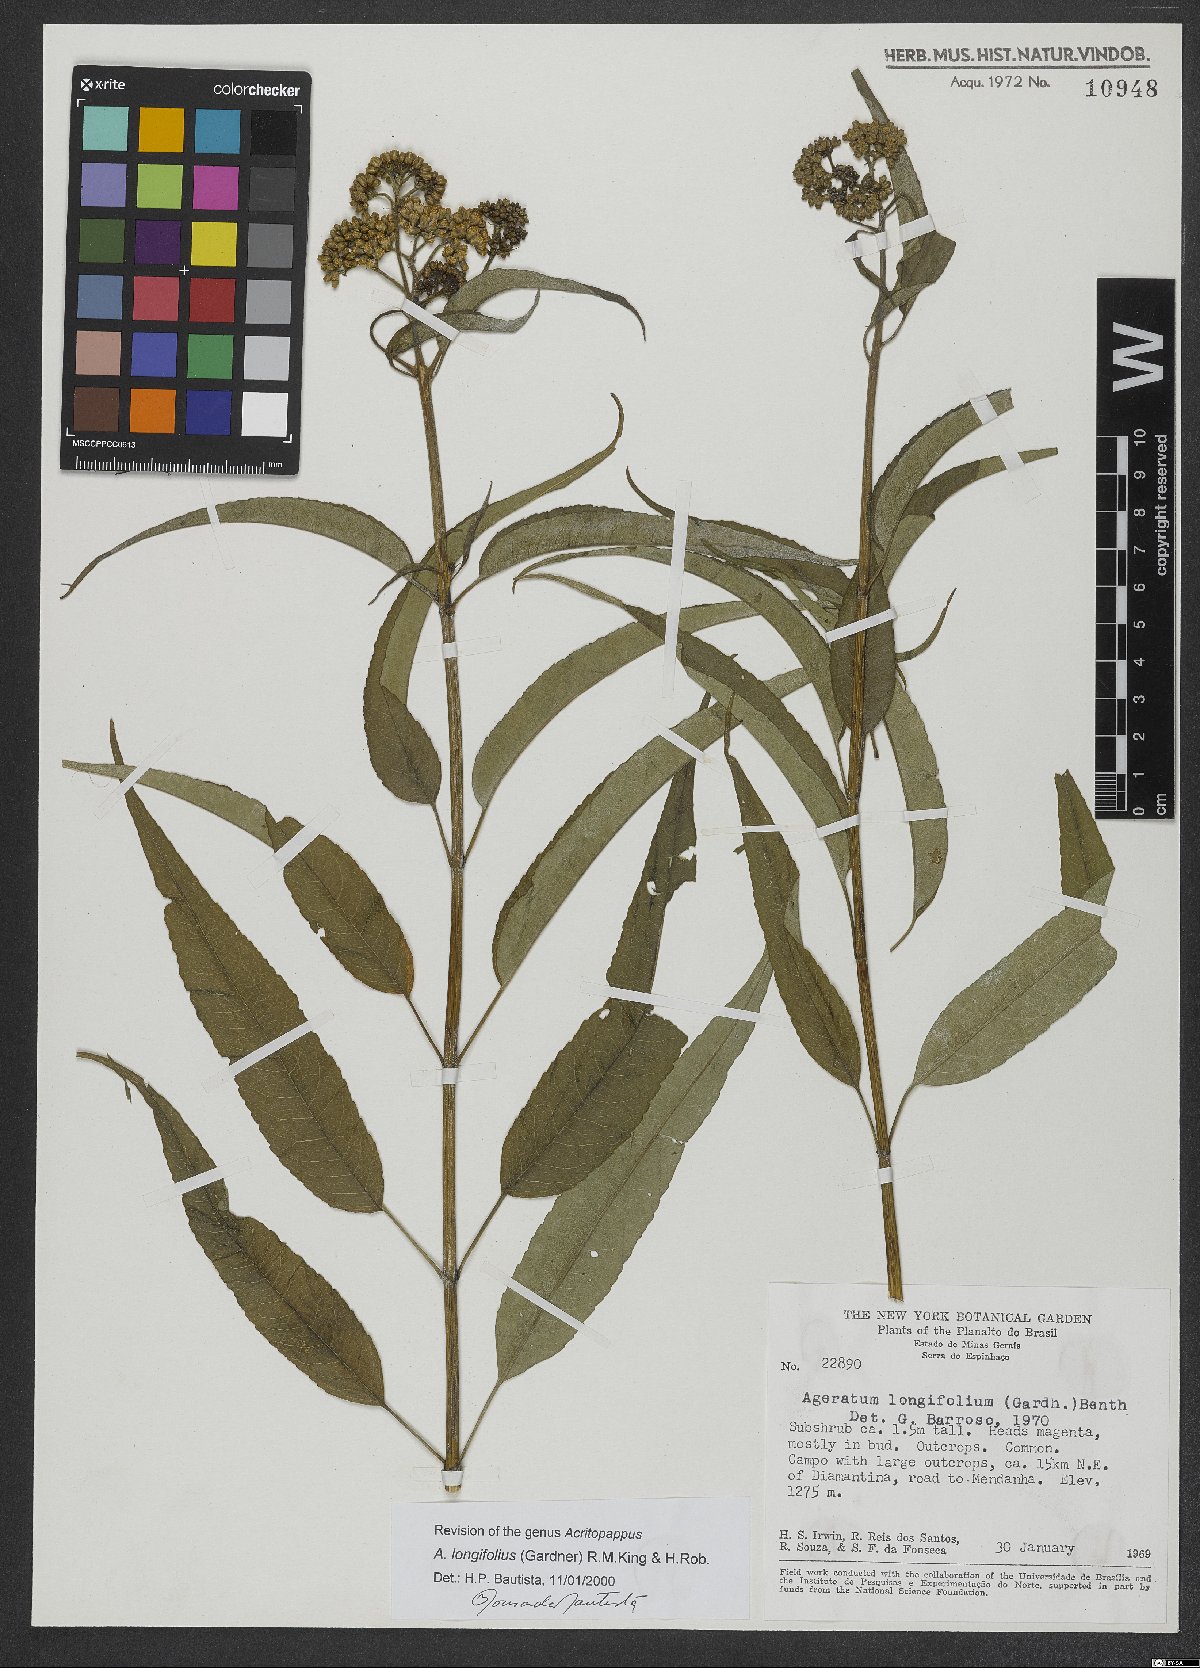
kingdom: Plantae
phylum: Tracheophyta
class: Magnoliopsida
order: Asterales
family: Asteraceae
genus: Acritopappus
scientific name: Acritopappus longifolius
